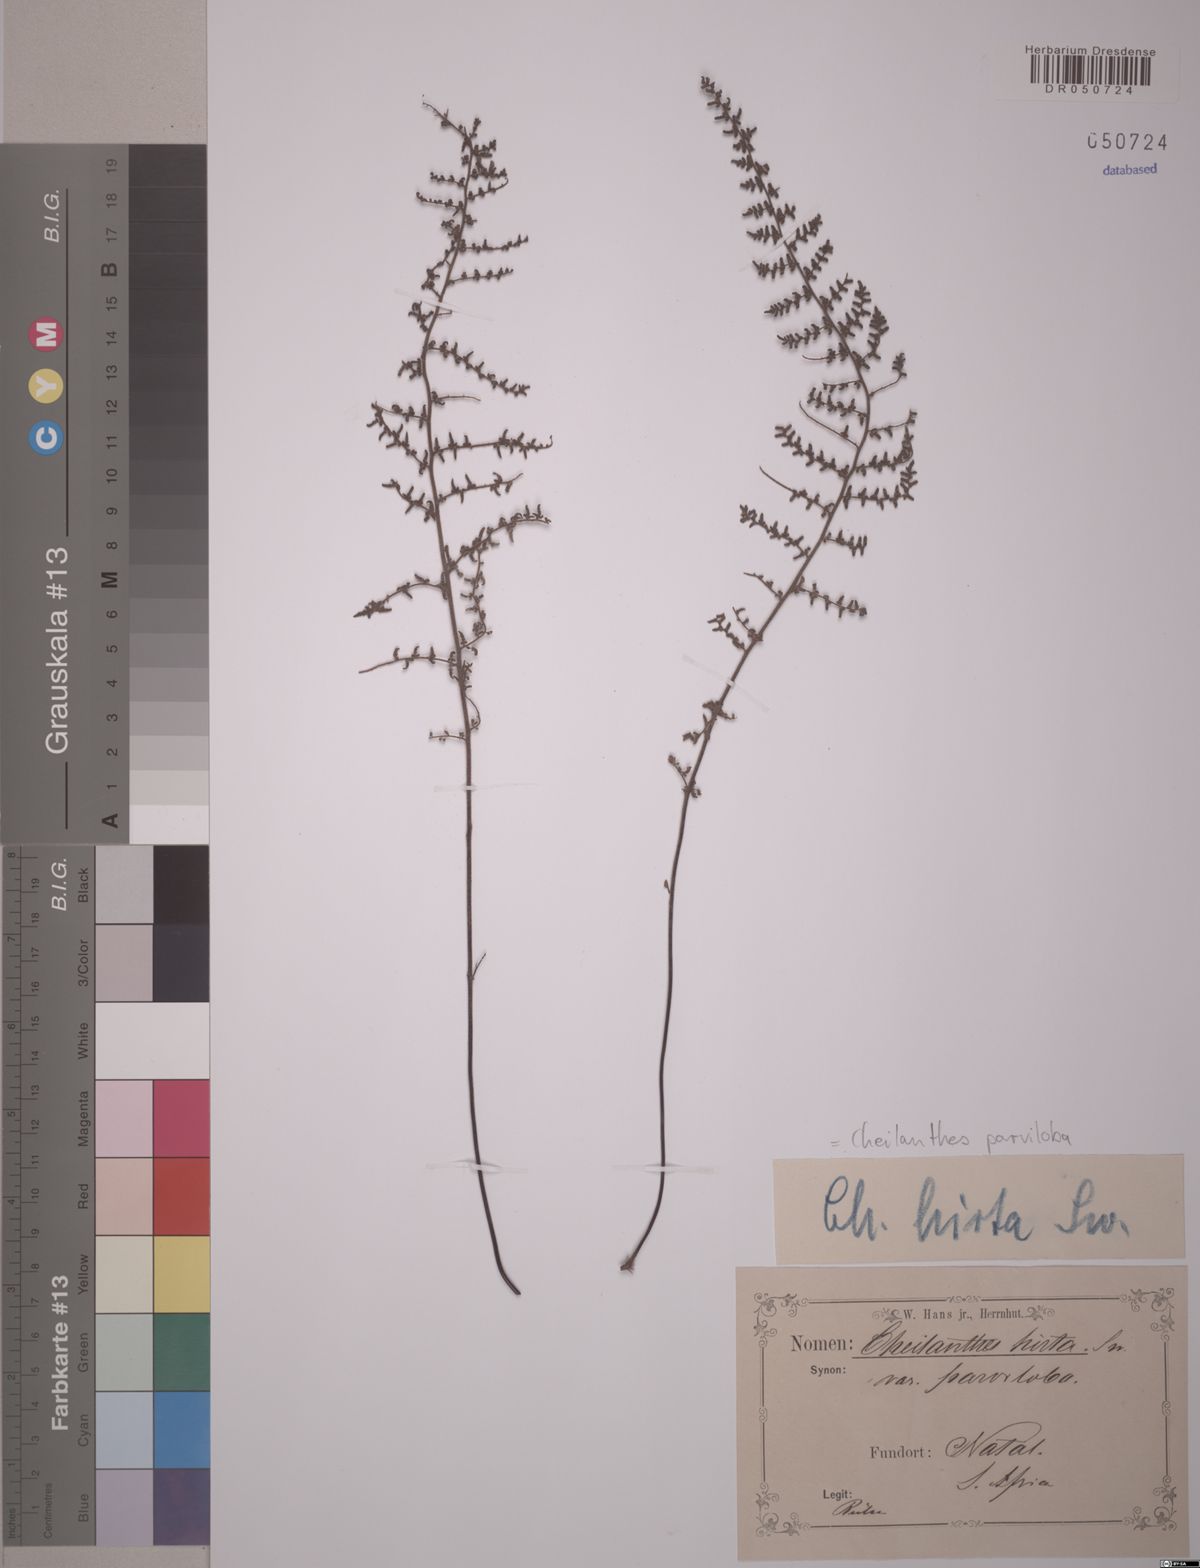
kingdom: Plantae
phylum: Tracheophyta
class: Polypodiopsida
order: Polypodiales
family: Pteridaceae
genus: Cheilanthes
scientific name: Cheilanthes parviloba
